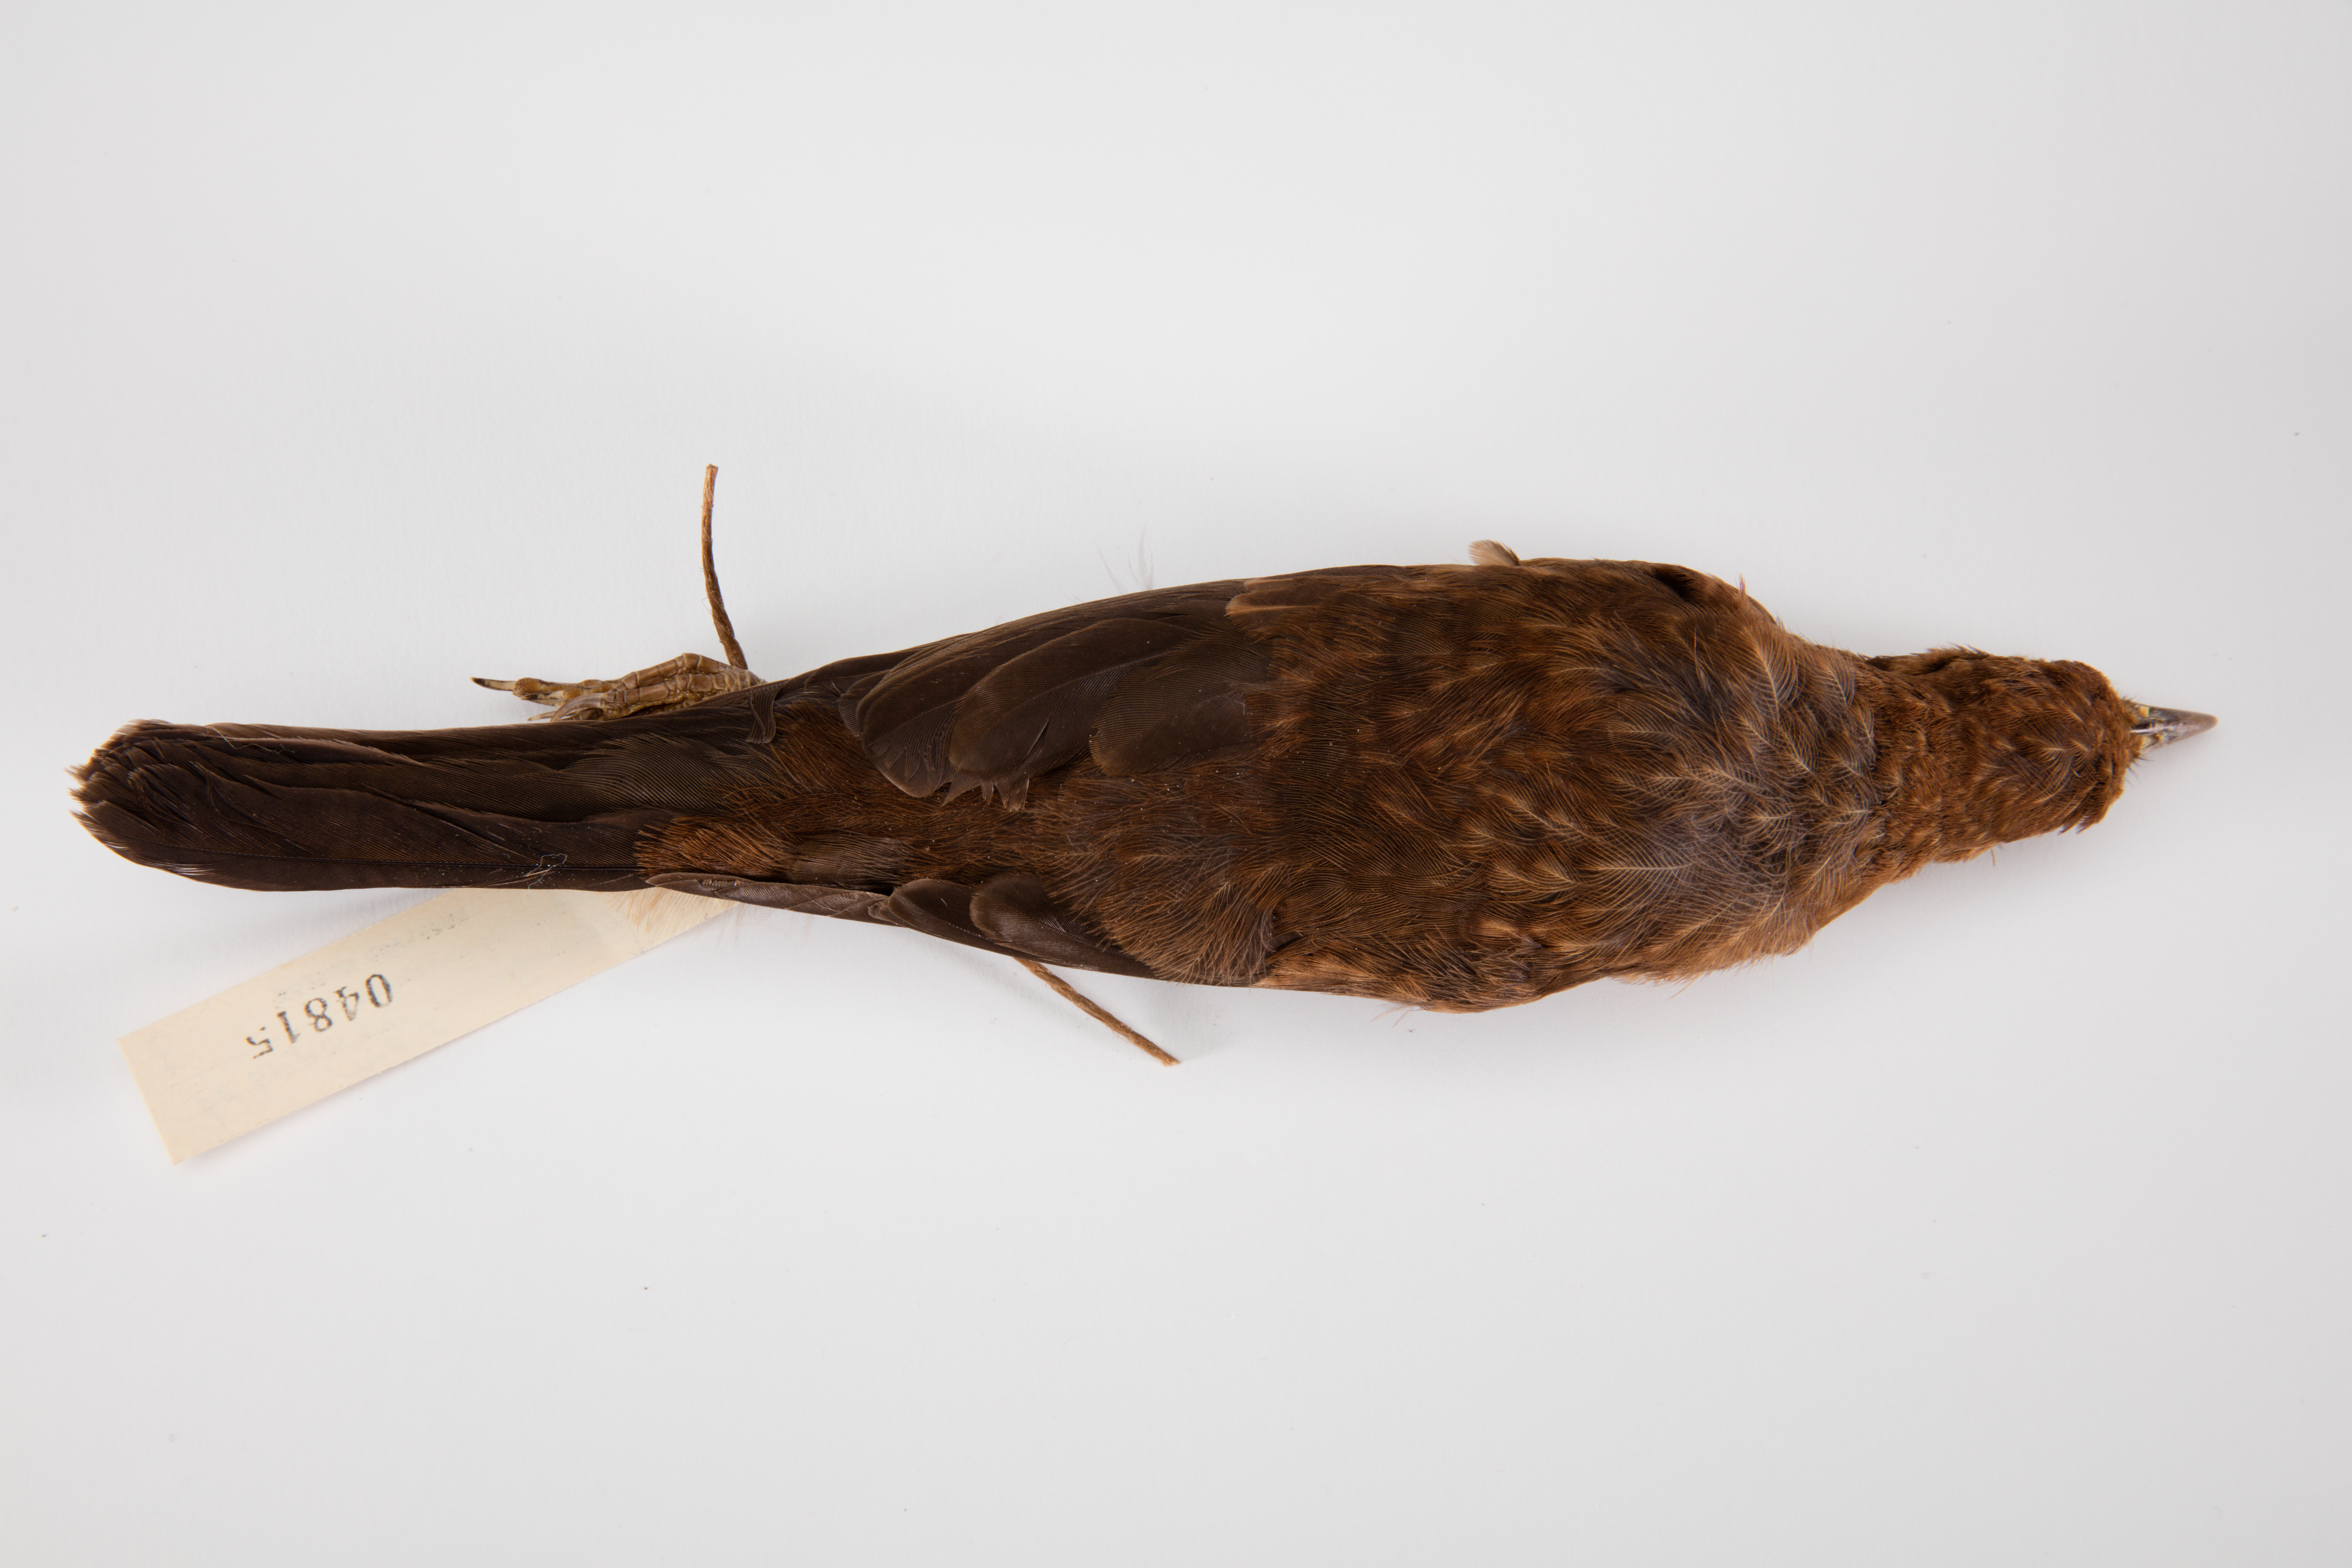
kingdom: Animalia
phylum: Chordata
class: Aves
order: Passeriformes
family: Turdidae
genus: Turdus
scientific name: Turdus merula
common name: Common blackbird
